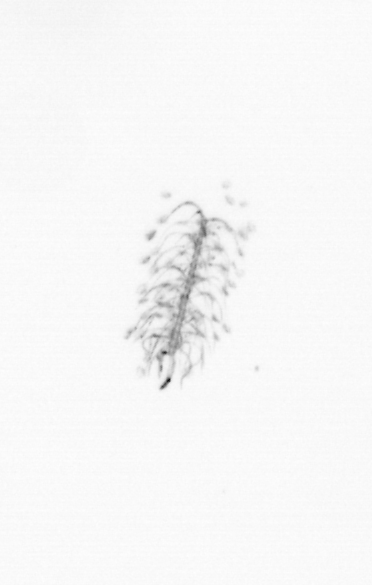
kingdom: Chromista
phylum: Ochrophyta
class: Bacillariophyceae
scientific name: Bacillariophyceae
